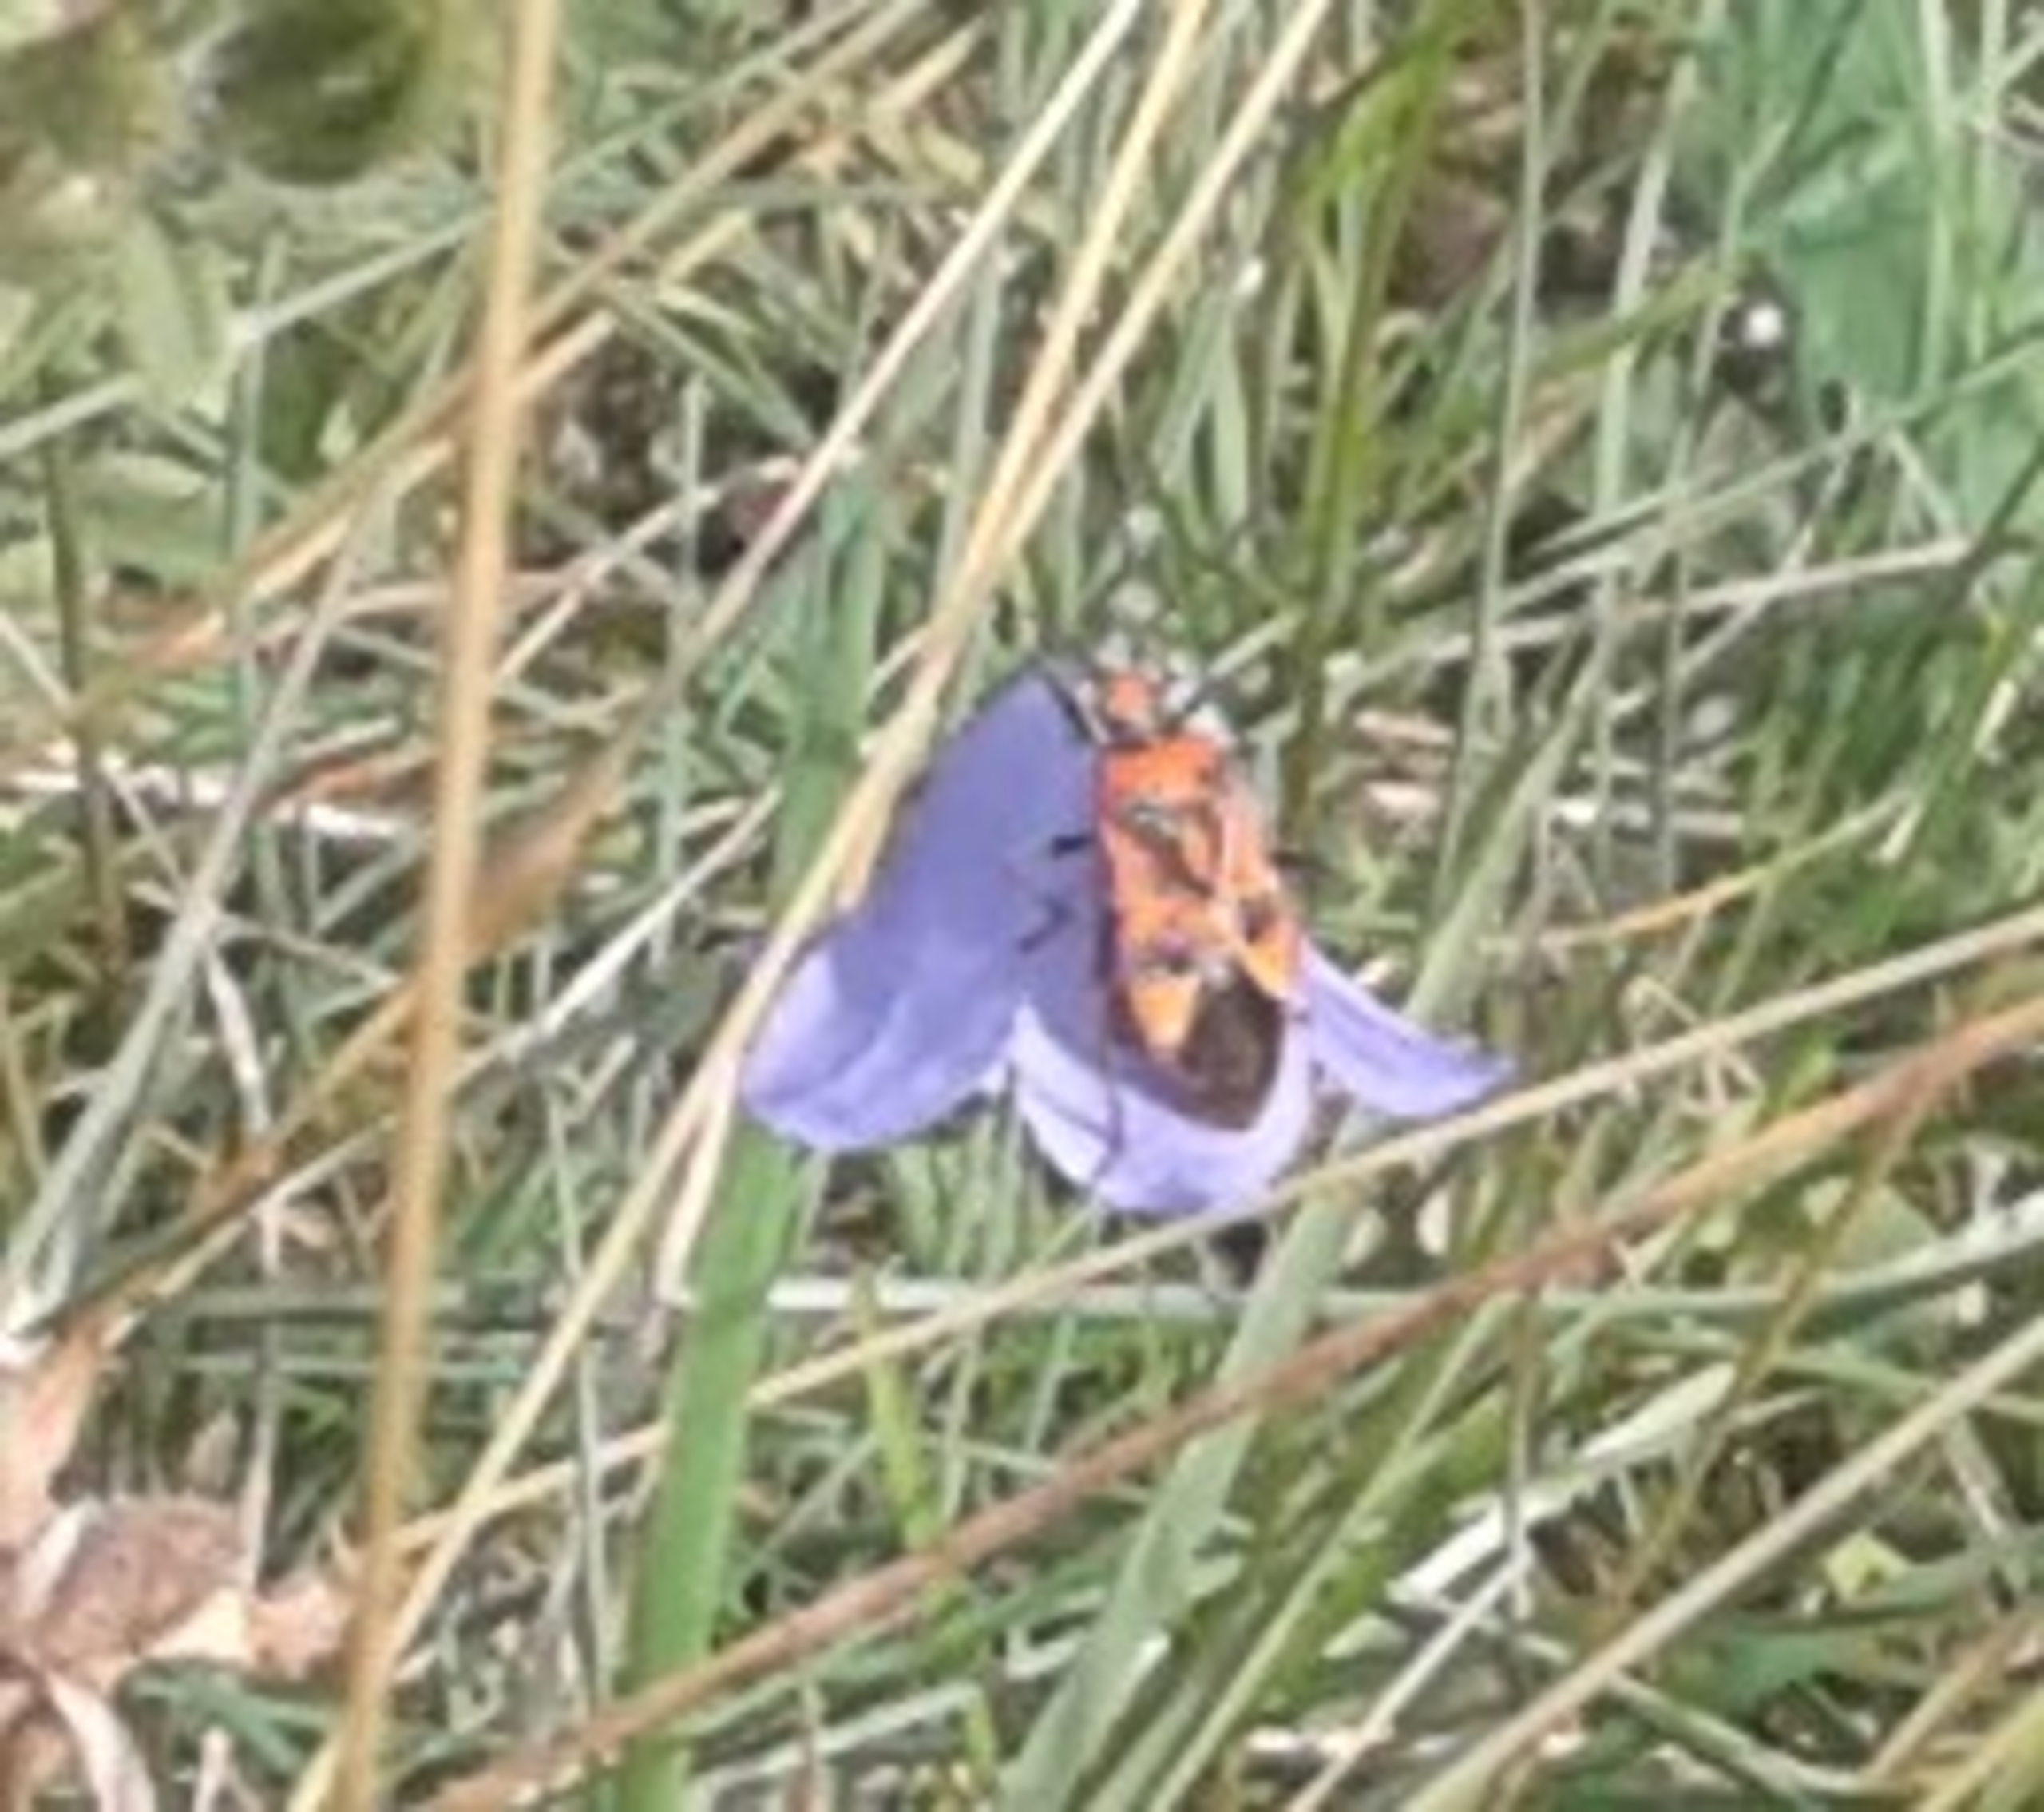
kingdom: Animalia
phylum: Arthropoda
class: Insecta
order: Hemiptera
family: Rhopalidae
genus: Corizus
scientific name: Corizus hyoscyami
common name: Rød kanttæge
